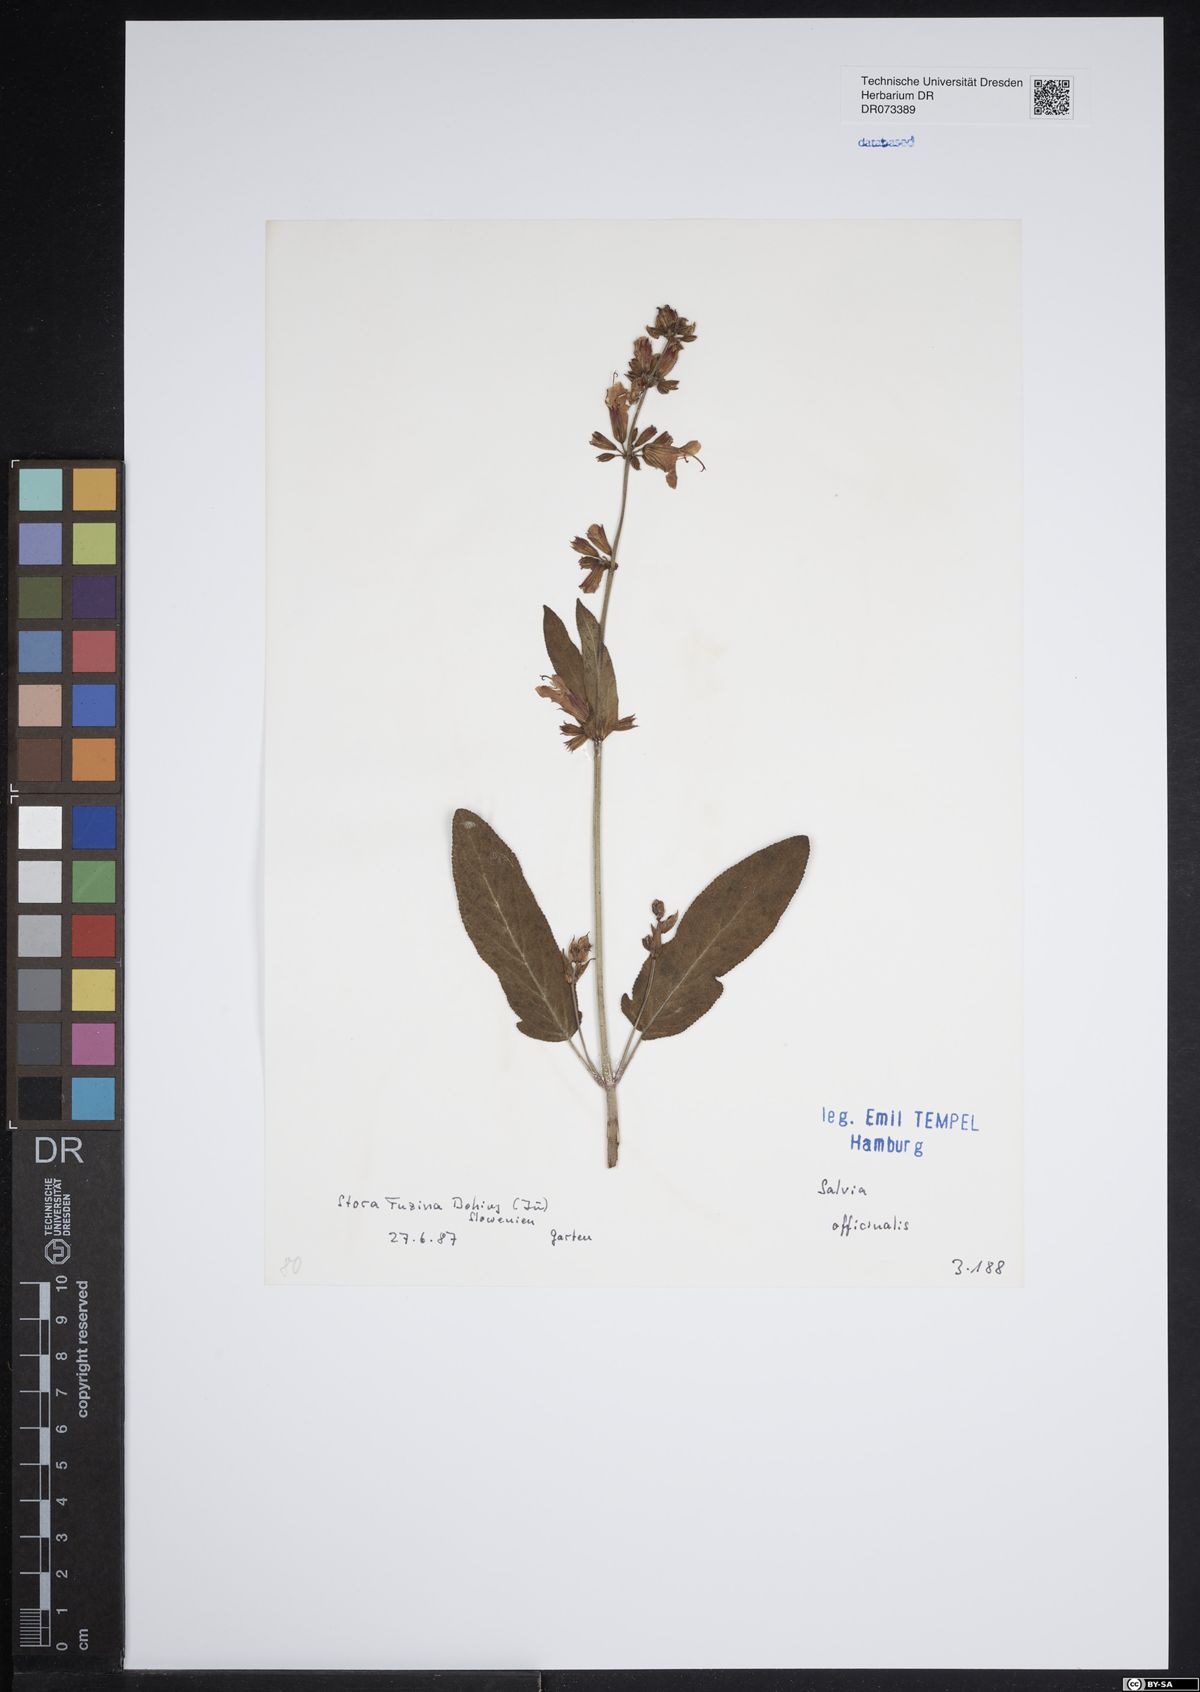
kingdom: Plantae
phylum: Tracheophyta
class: Magnoliopsida
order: Lamiales
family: Lamiaceae
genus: Salvia
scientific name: Salvia officinalis
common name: Sage
